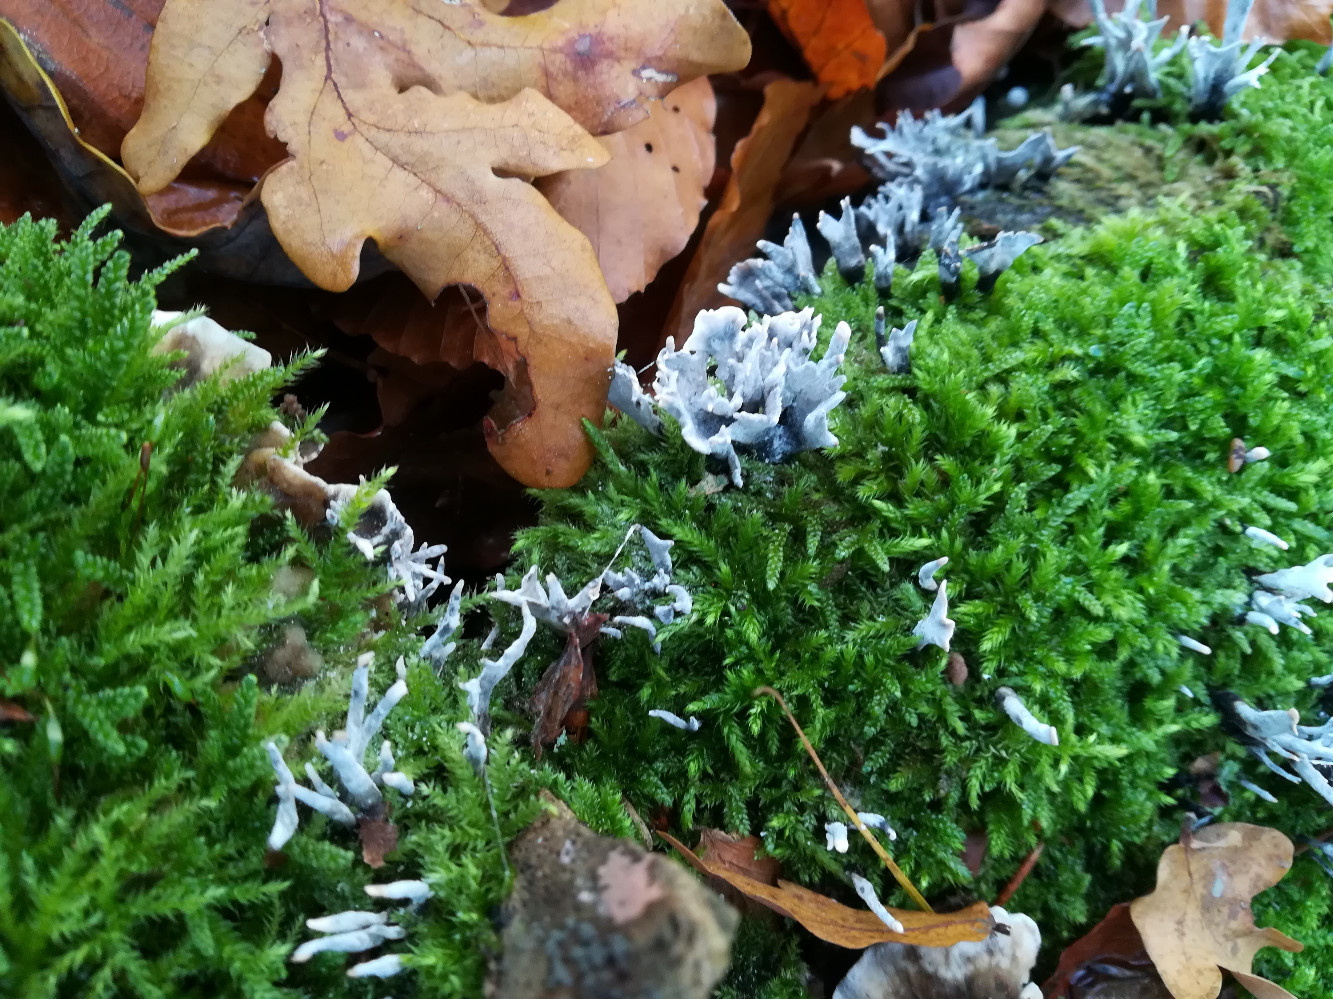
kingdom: Fungi
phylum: Ascomycota
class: Sordariomycetes
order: Xylariales
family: Xylariaceae
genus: Xylaria
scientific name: Xylaria hypoxylon
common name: grenet stødsvamp
